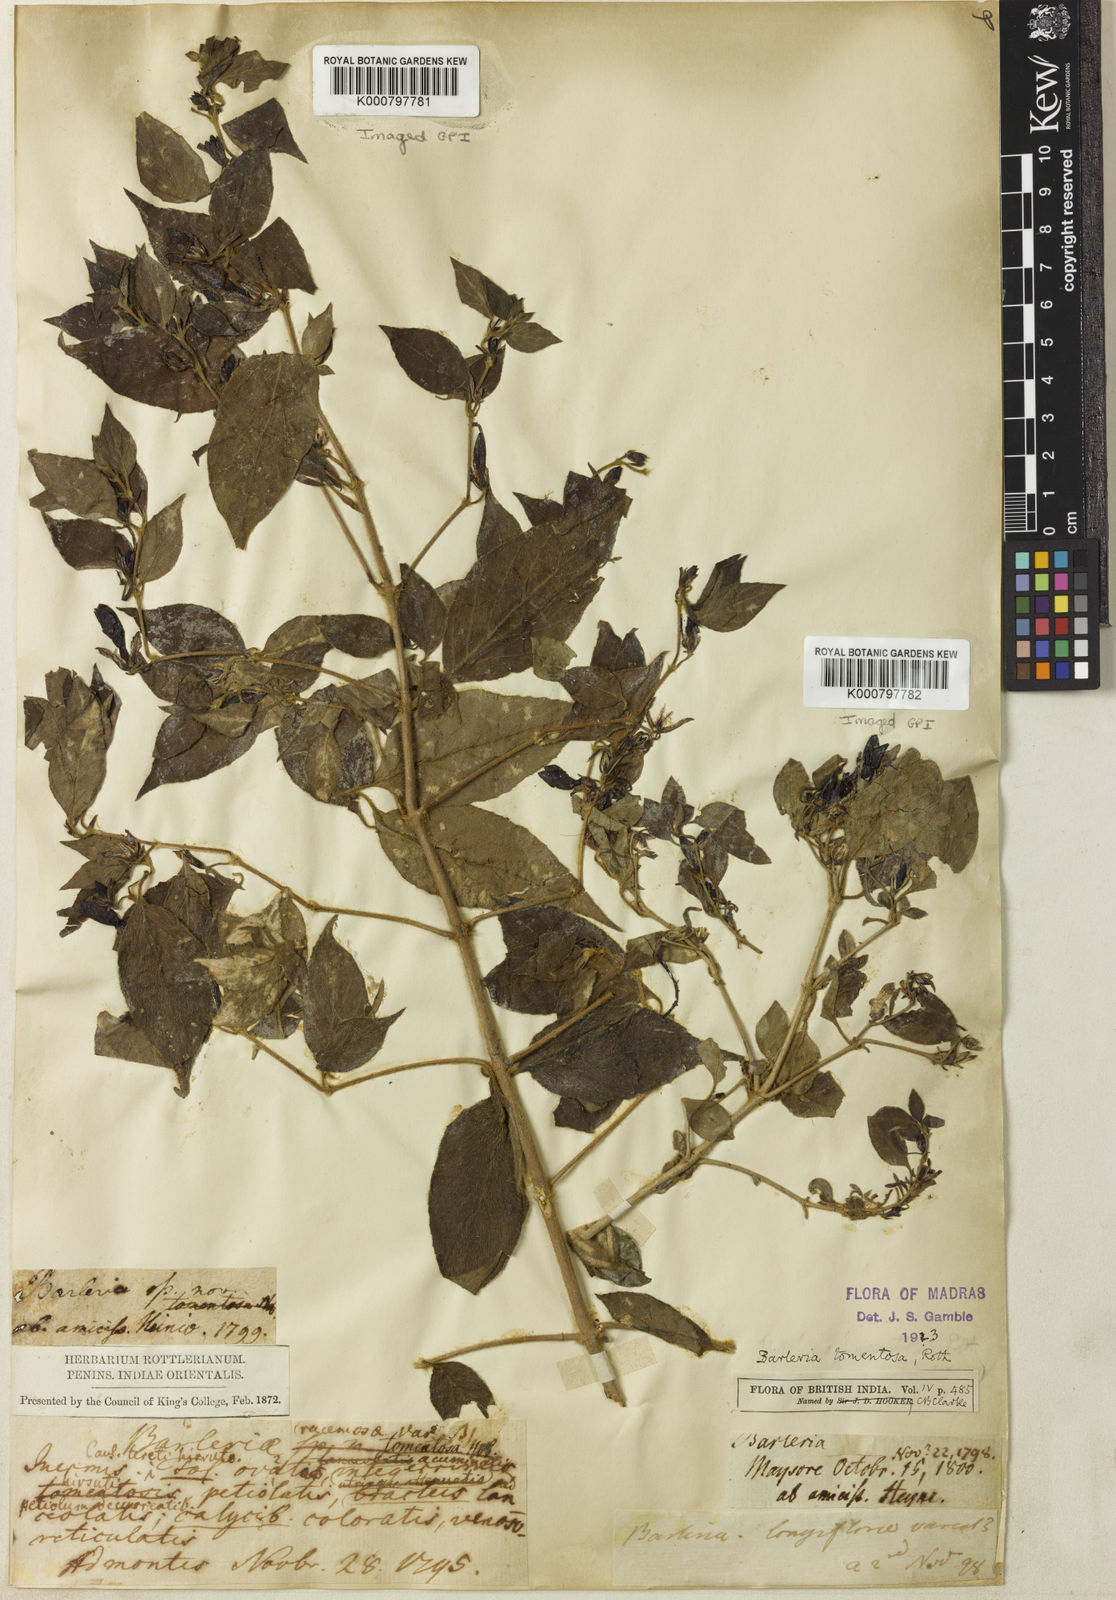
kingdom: Plantae
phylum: Tracheophyta
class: Magnoliopsida
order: Lamiales
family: Acanthaceae
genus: Barleria
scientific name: Barleria tomentosa
